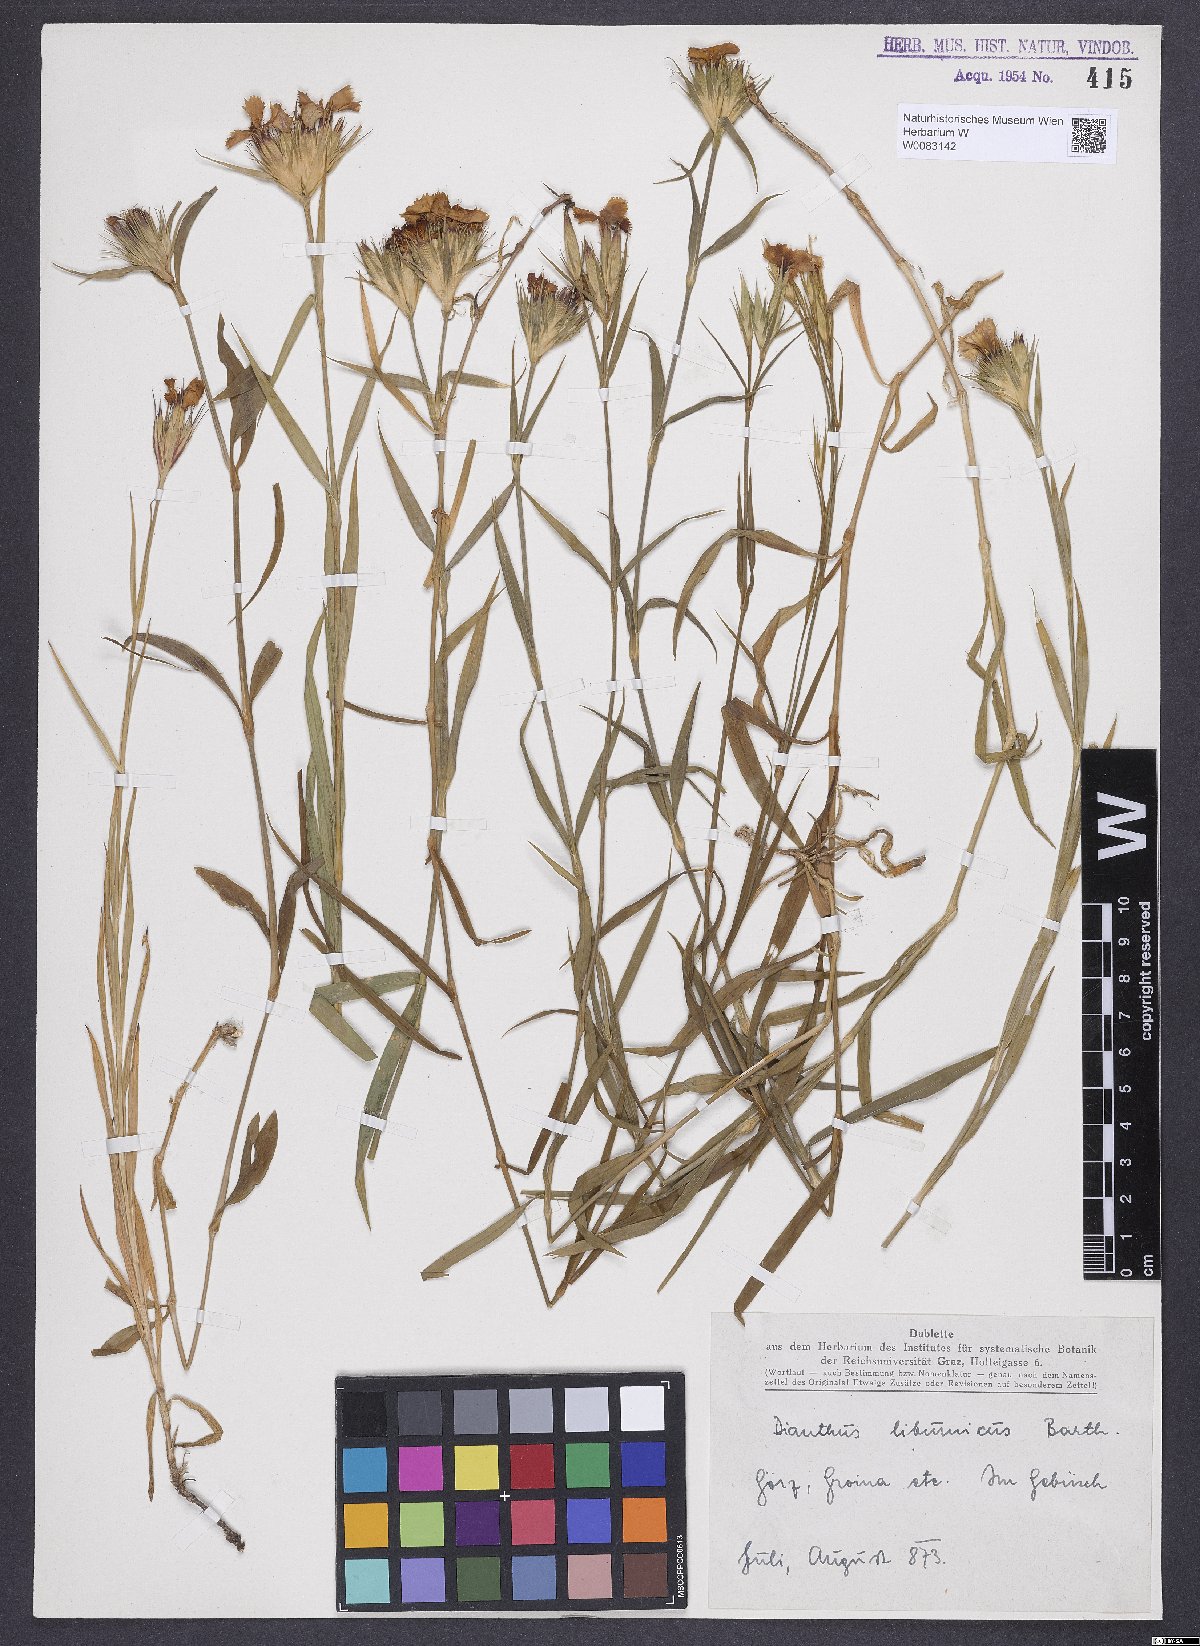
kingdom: Plantae
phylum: Tracheophyta
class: Magnoliopsida
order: Caryophyllales
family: Caryophyllaceae
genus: Dianthus
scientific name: Dianthus barbatus
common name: Sweet-william
